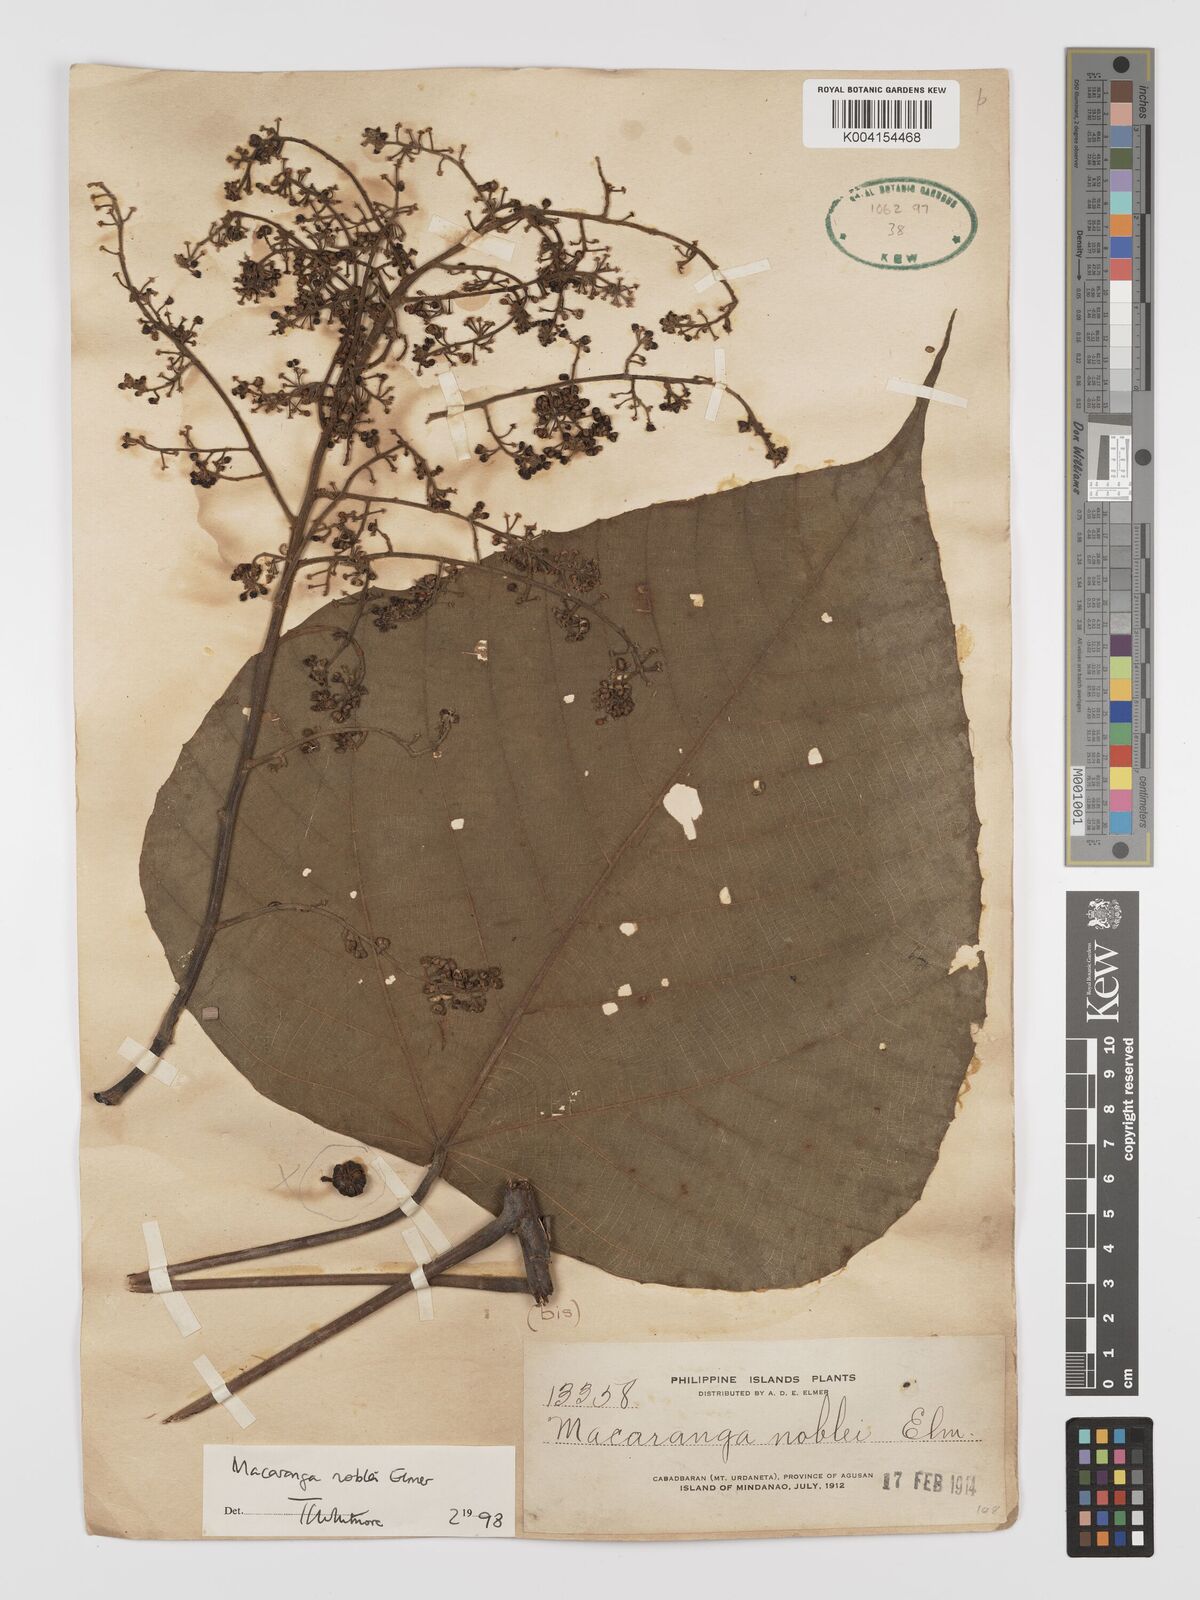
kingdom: Plantae
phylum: Tracheophyta
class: Magnoliopsida
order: Malpighiales
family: Euphorbiaceae
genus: Macaranga
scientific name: Macaranga noblei
